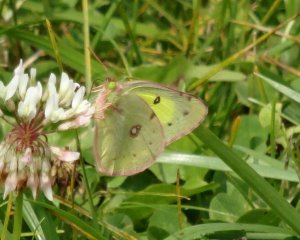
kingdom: Animalia
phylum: Arthropoda
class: Insecta
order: Lepidoptera
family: Pieridae
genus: Colias
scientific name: Colias philodice
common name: Clouded Sulphur
